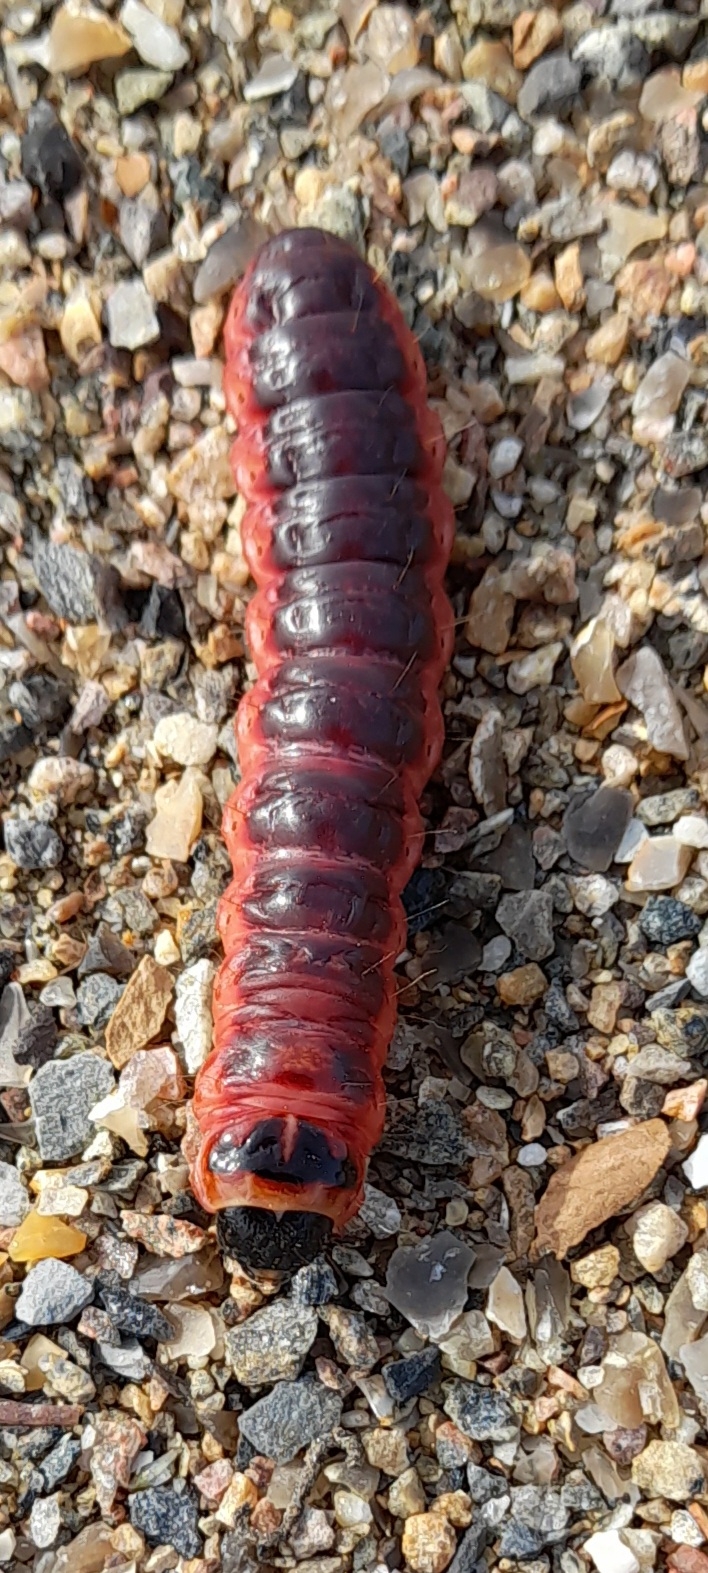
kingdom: Animalia
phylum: Arthropoda
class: Insecta
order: Lepidoptera
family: Cossidae
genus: Cossus
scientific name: Cossus cossus
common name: Pileborer
